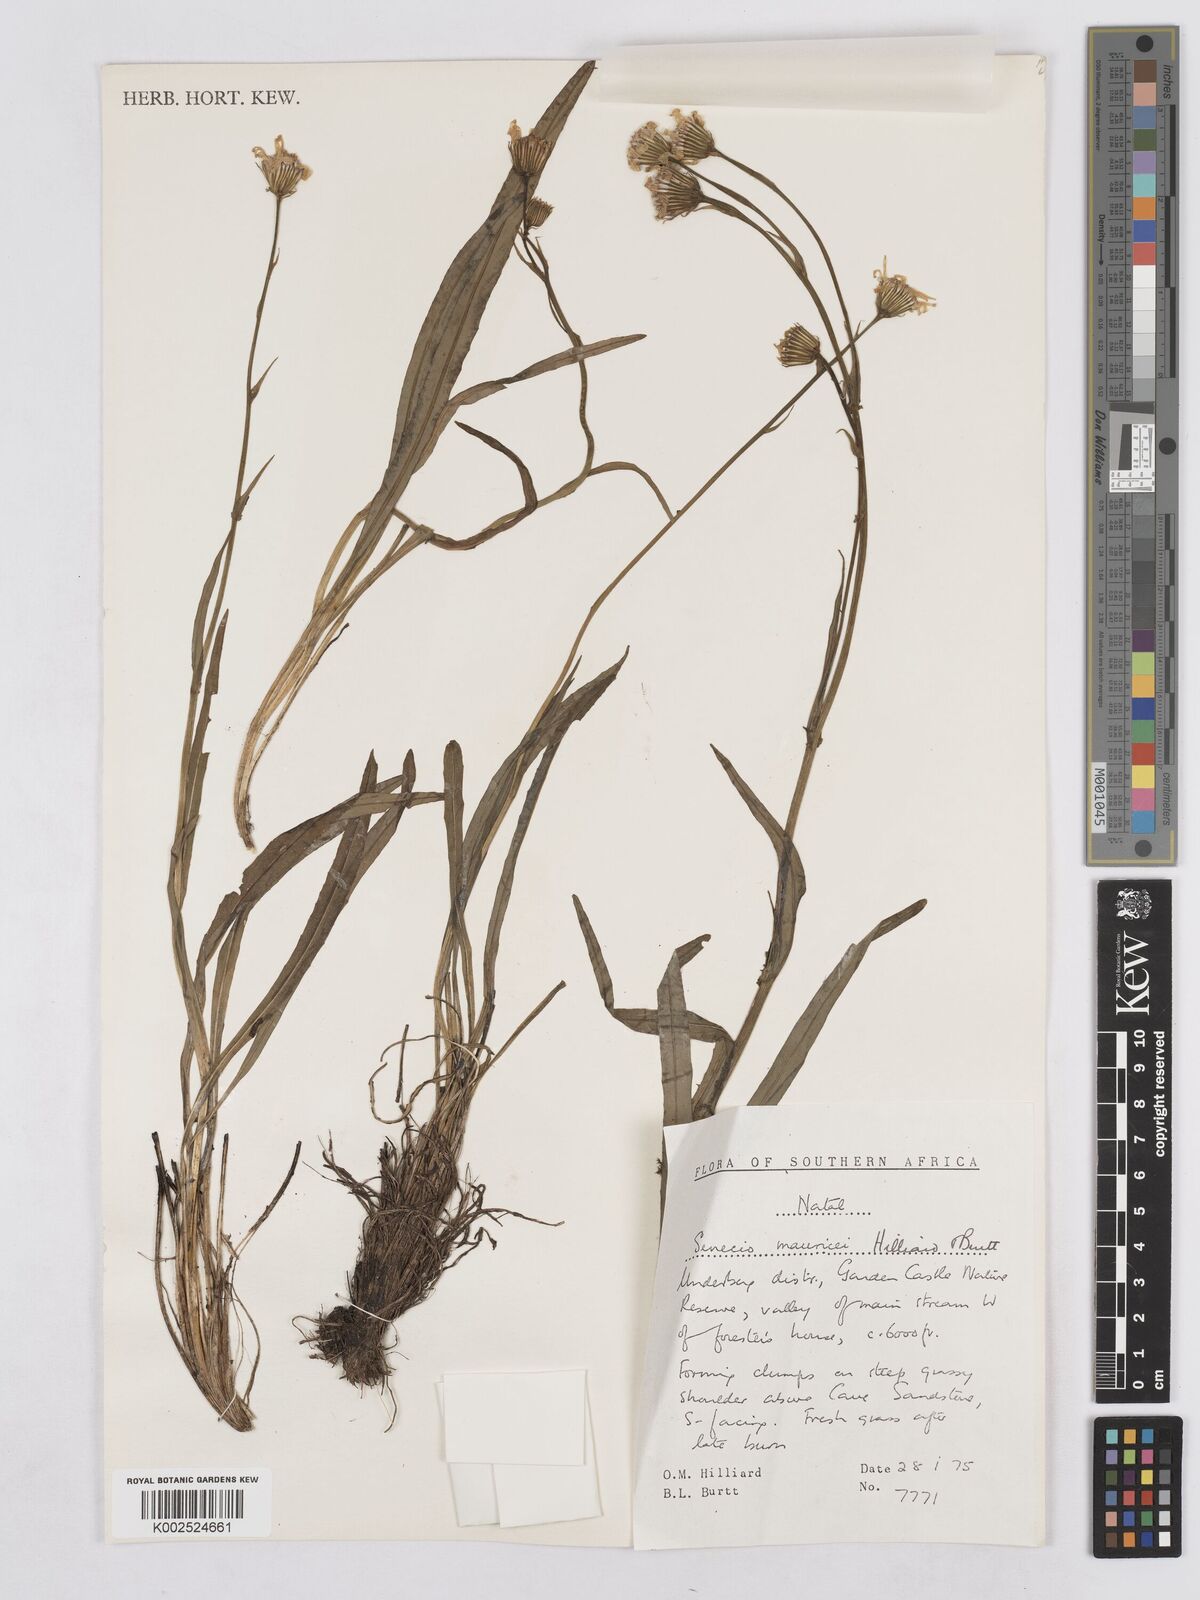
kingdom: Plantae
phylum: Tracheophyta
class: Magnoliopsida
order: Asterales
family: Asteraceae
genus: Senecio
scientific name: Senecio mauricei
